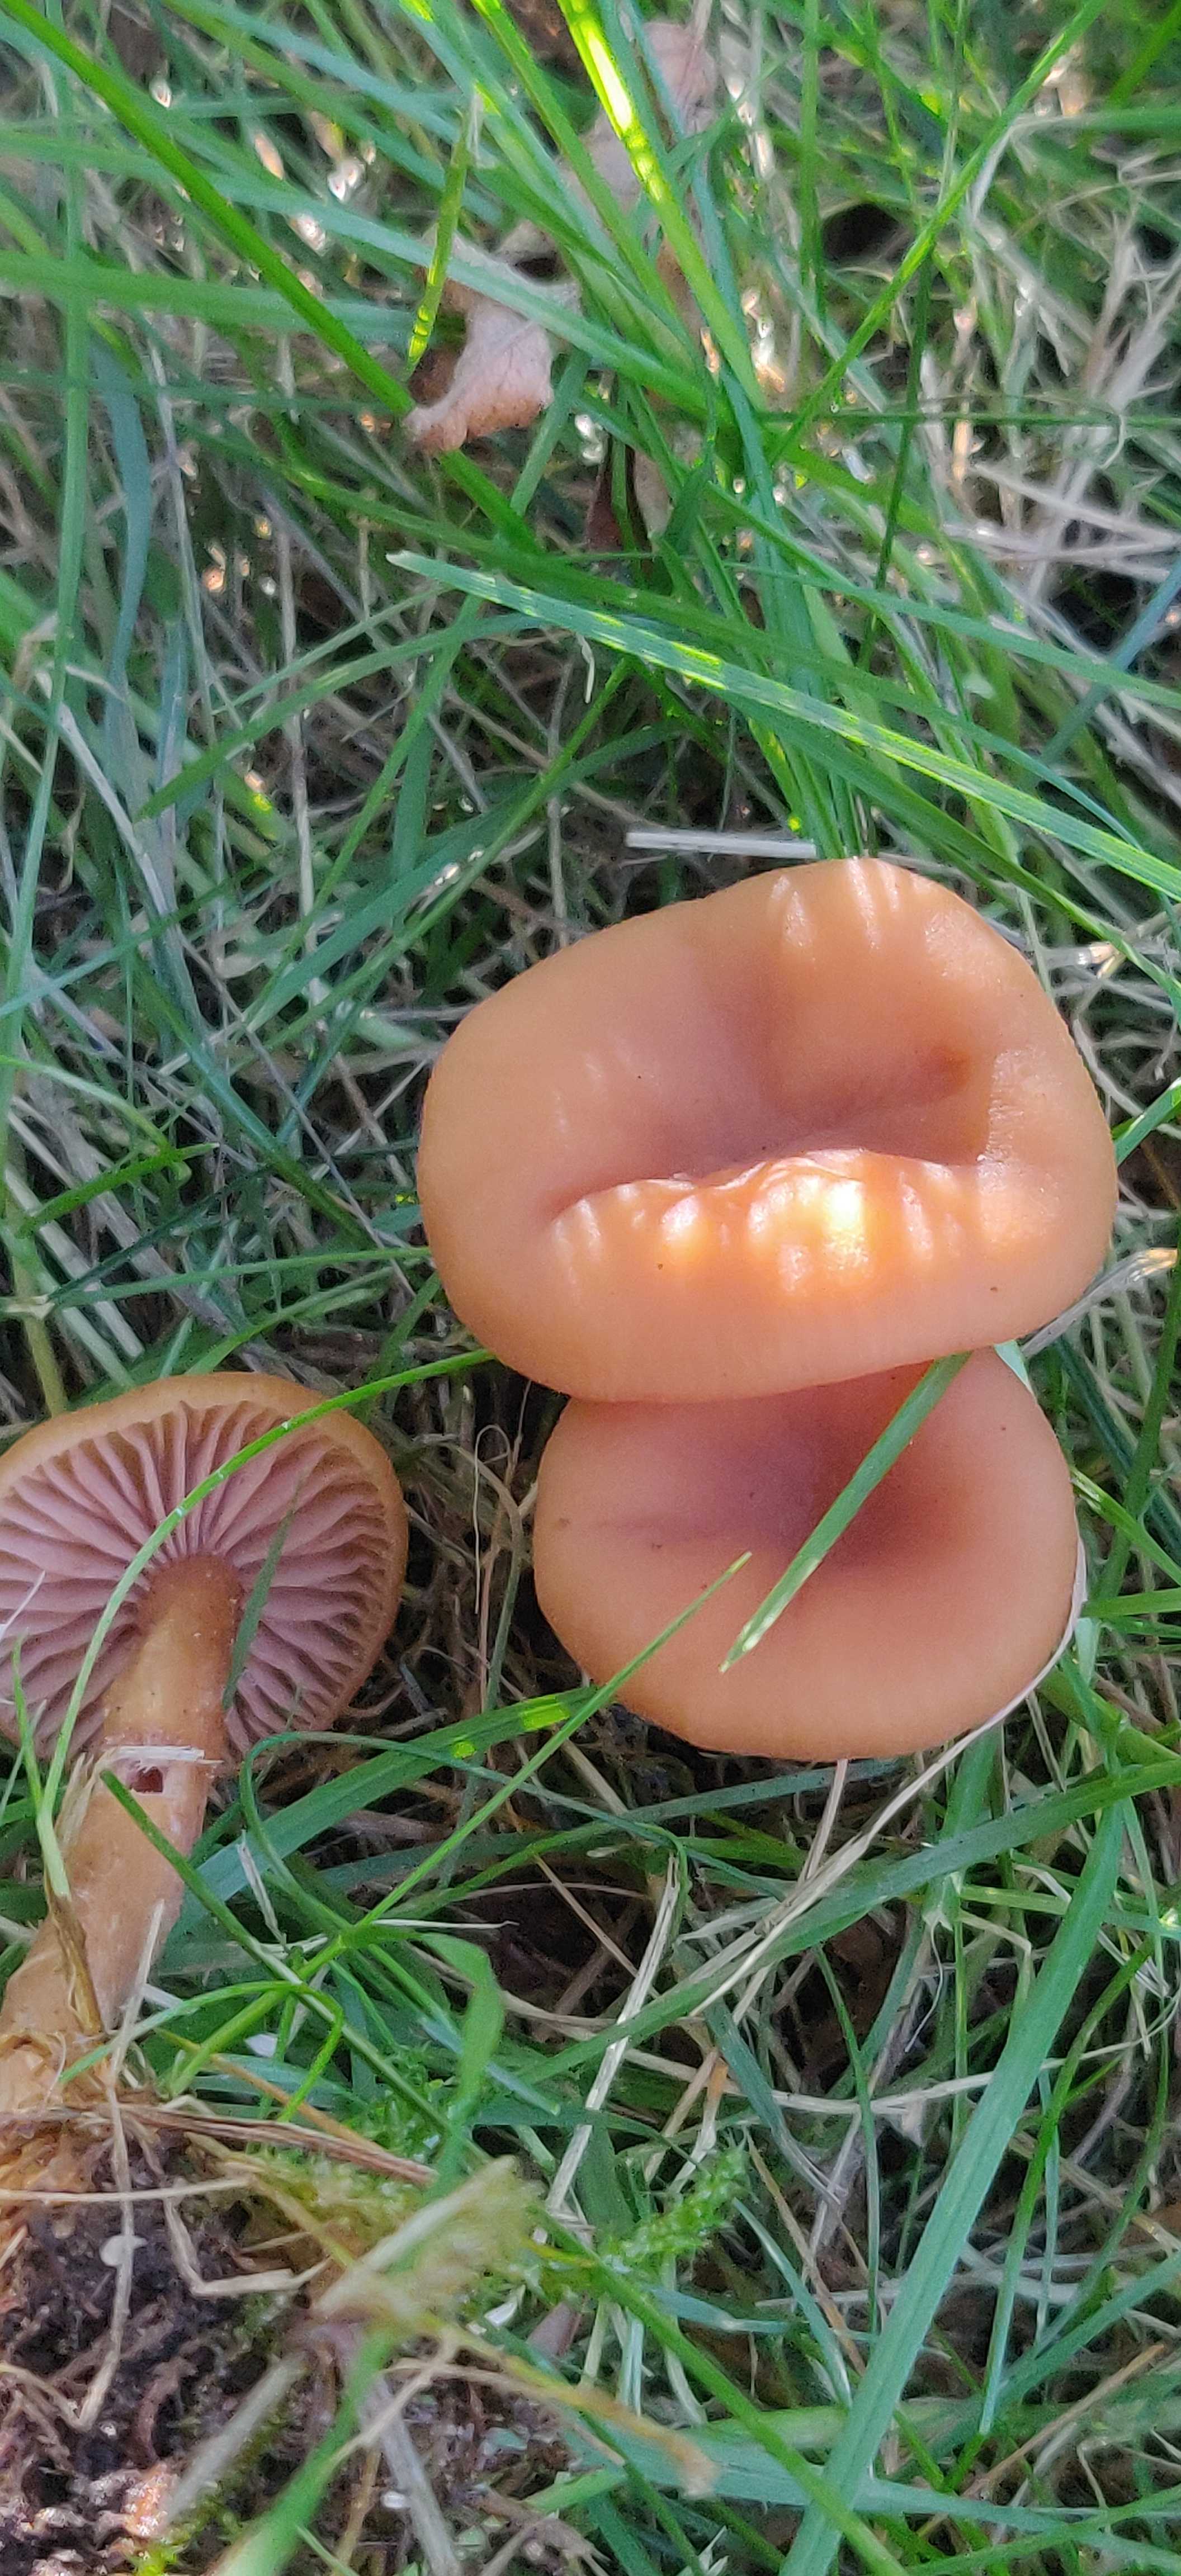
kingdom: Fungi
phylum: Basidiomycota
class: Agaricomycetes
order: Agaricales
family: Hydnangiaceae
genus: Laccaria
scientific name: Laccaria laccata
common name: rød ametysthat
